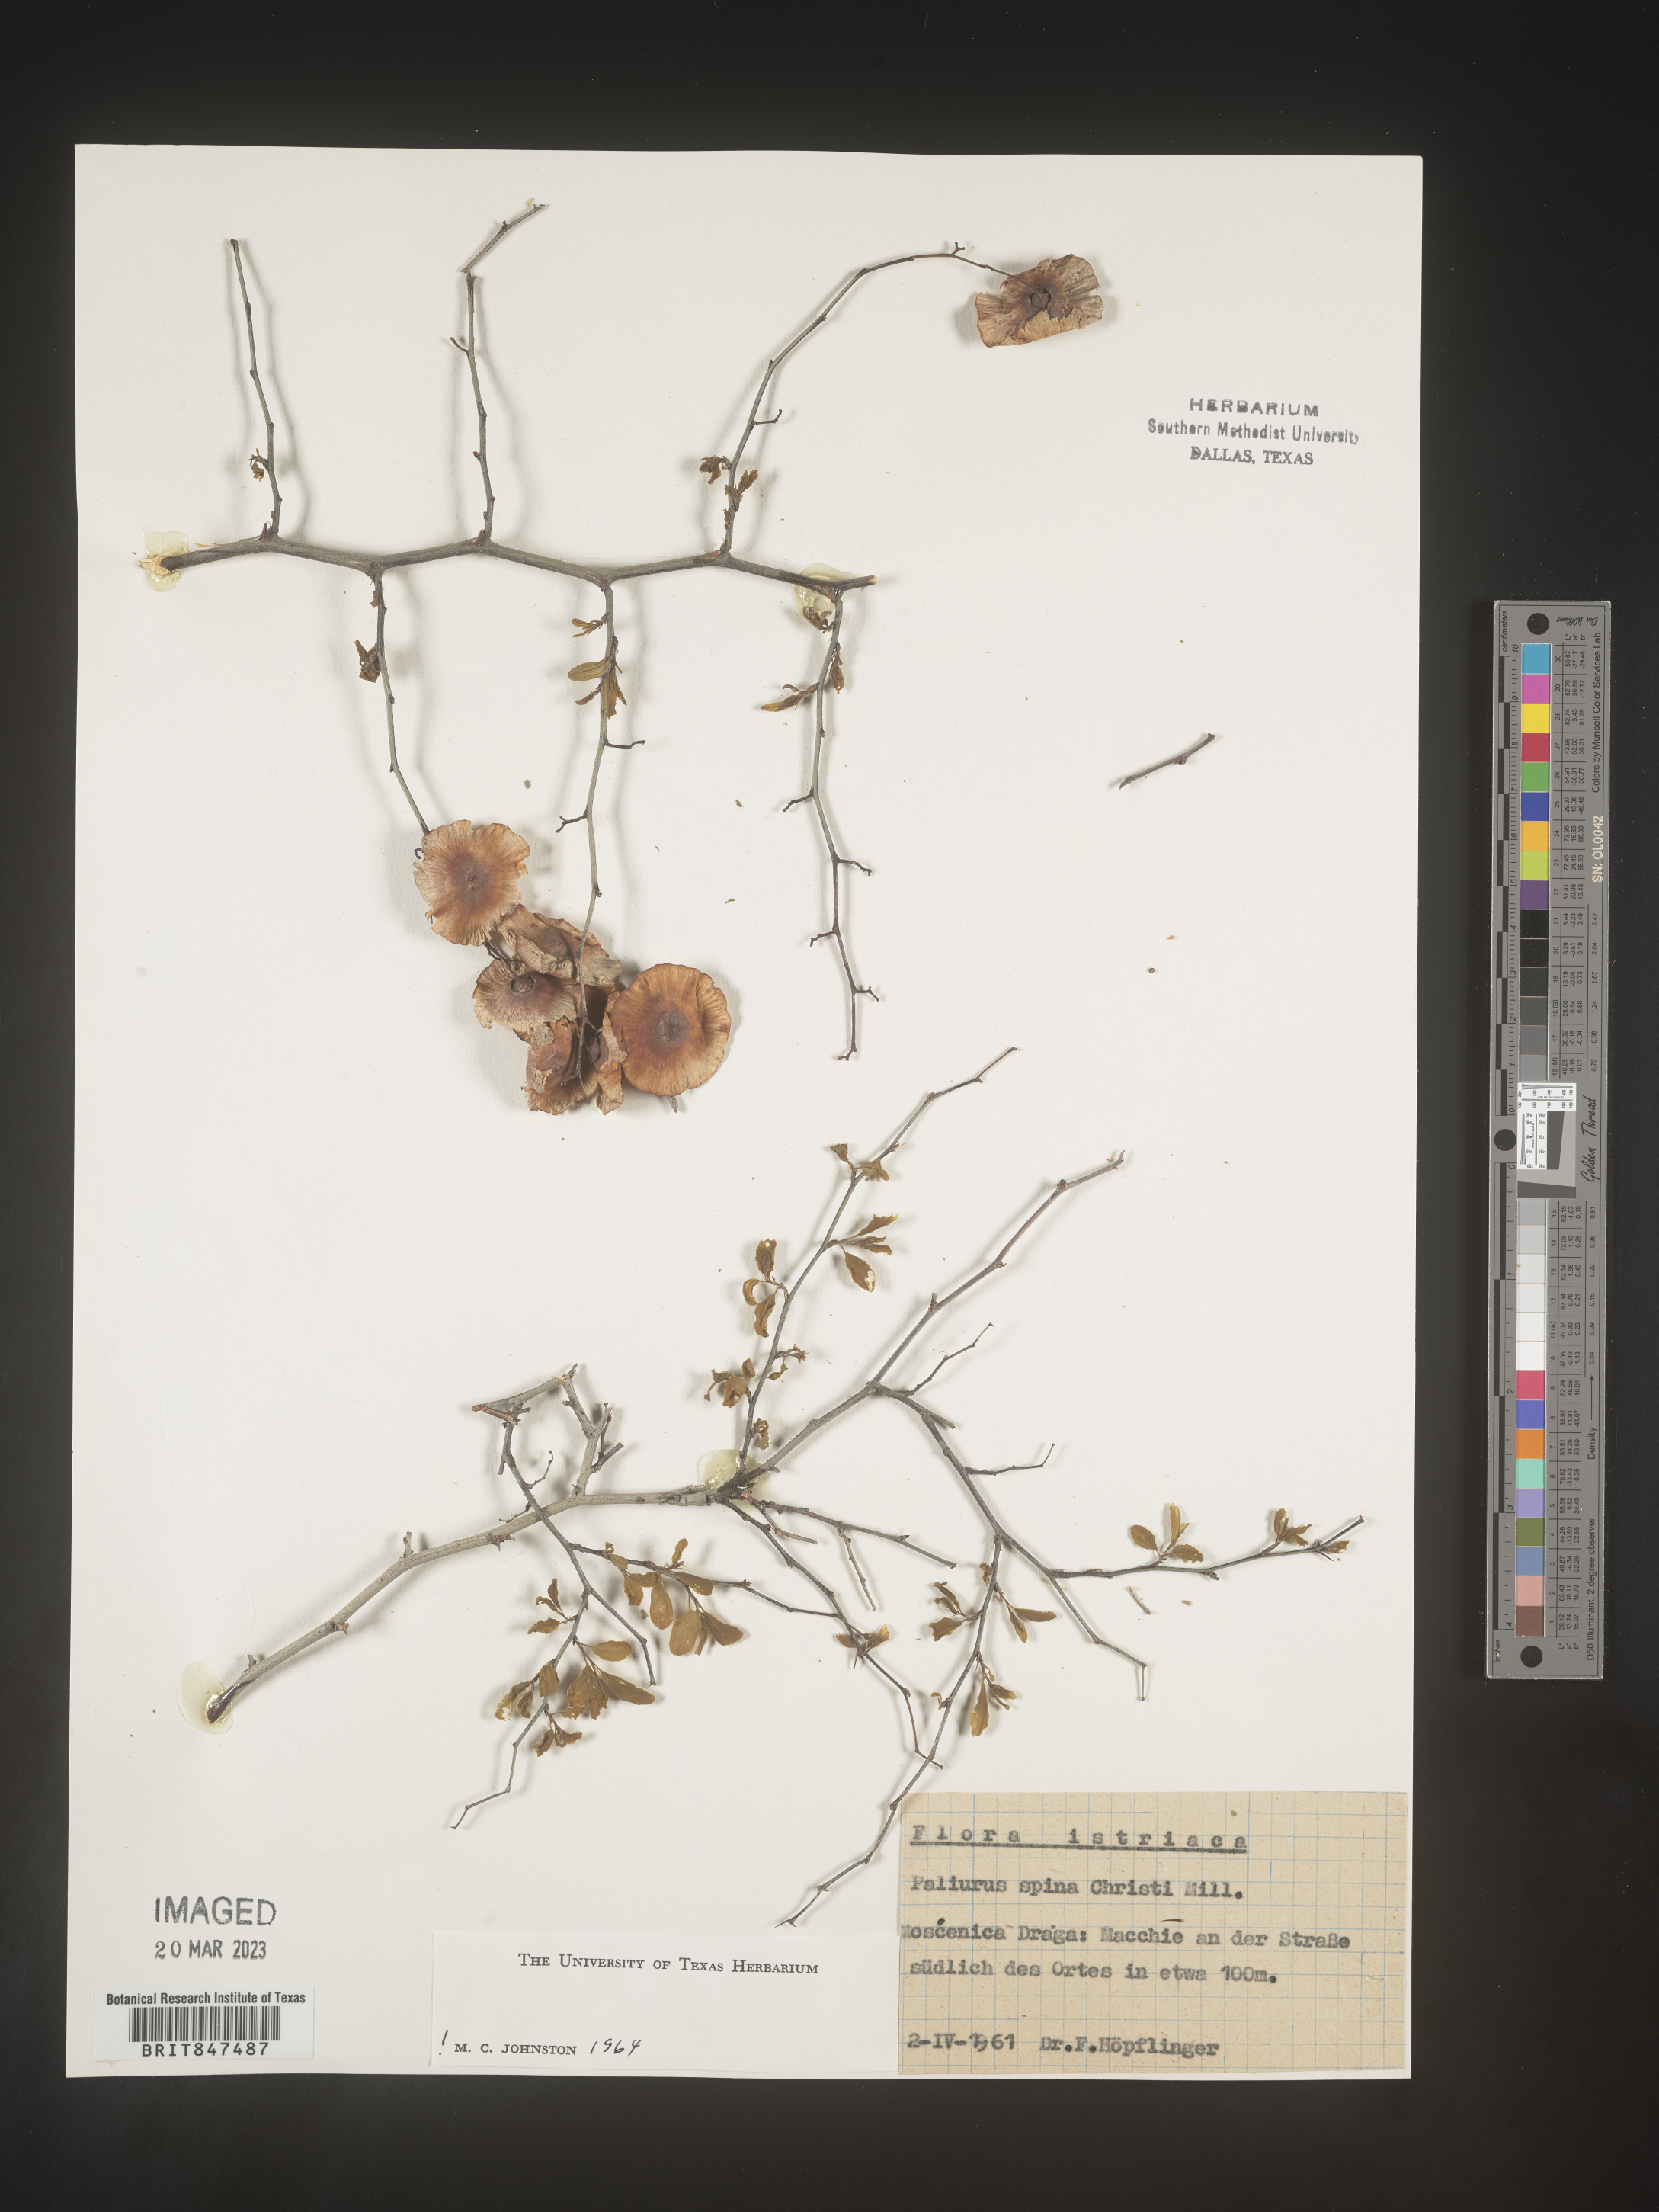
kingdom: Plantae
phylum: Tracheophyta
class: Magnoliopsida
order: Rosales
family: Rhamnaceae
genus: Paliurus
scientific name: Paliurus
